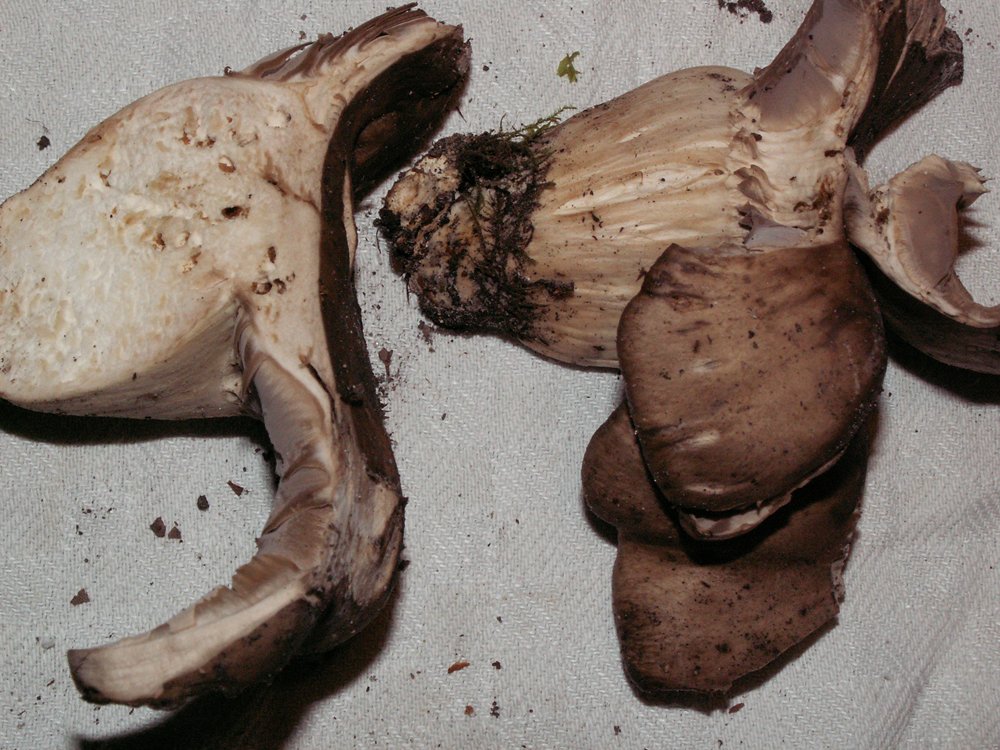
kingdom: Fungi
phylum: Basidiomycota
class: Agaricomycetes
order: Agaricales
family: Lyophyllaceae
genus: Lyophyllum
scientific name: Lyophyllum decastes
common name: røggrå gråblad
